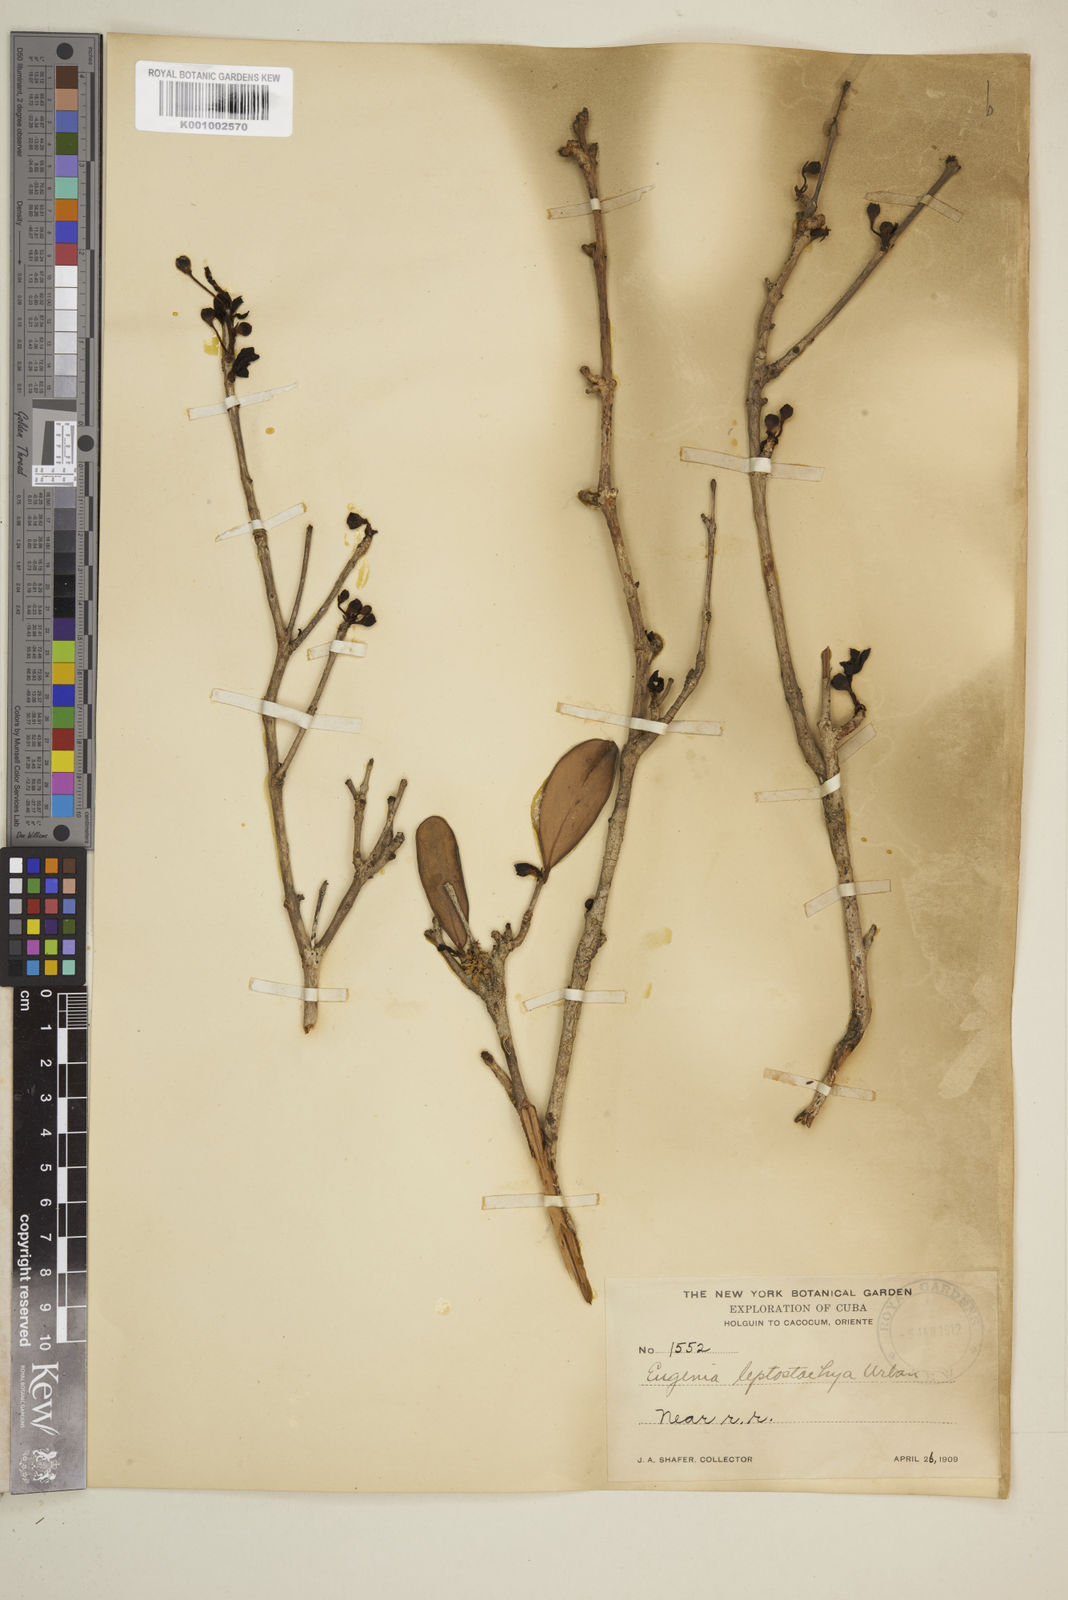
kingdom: Plantae
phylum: Tracheophyta
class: Magnoliopsida
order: Myrtales
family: Myrtaceae
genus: Eugenia
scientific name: Eugenia
